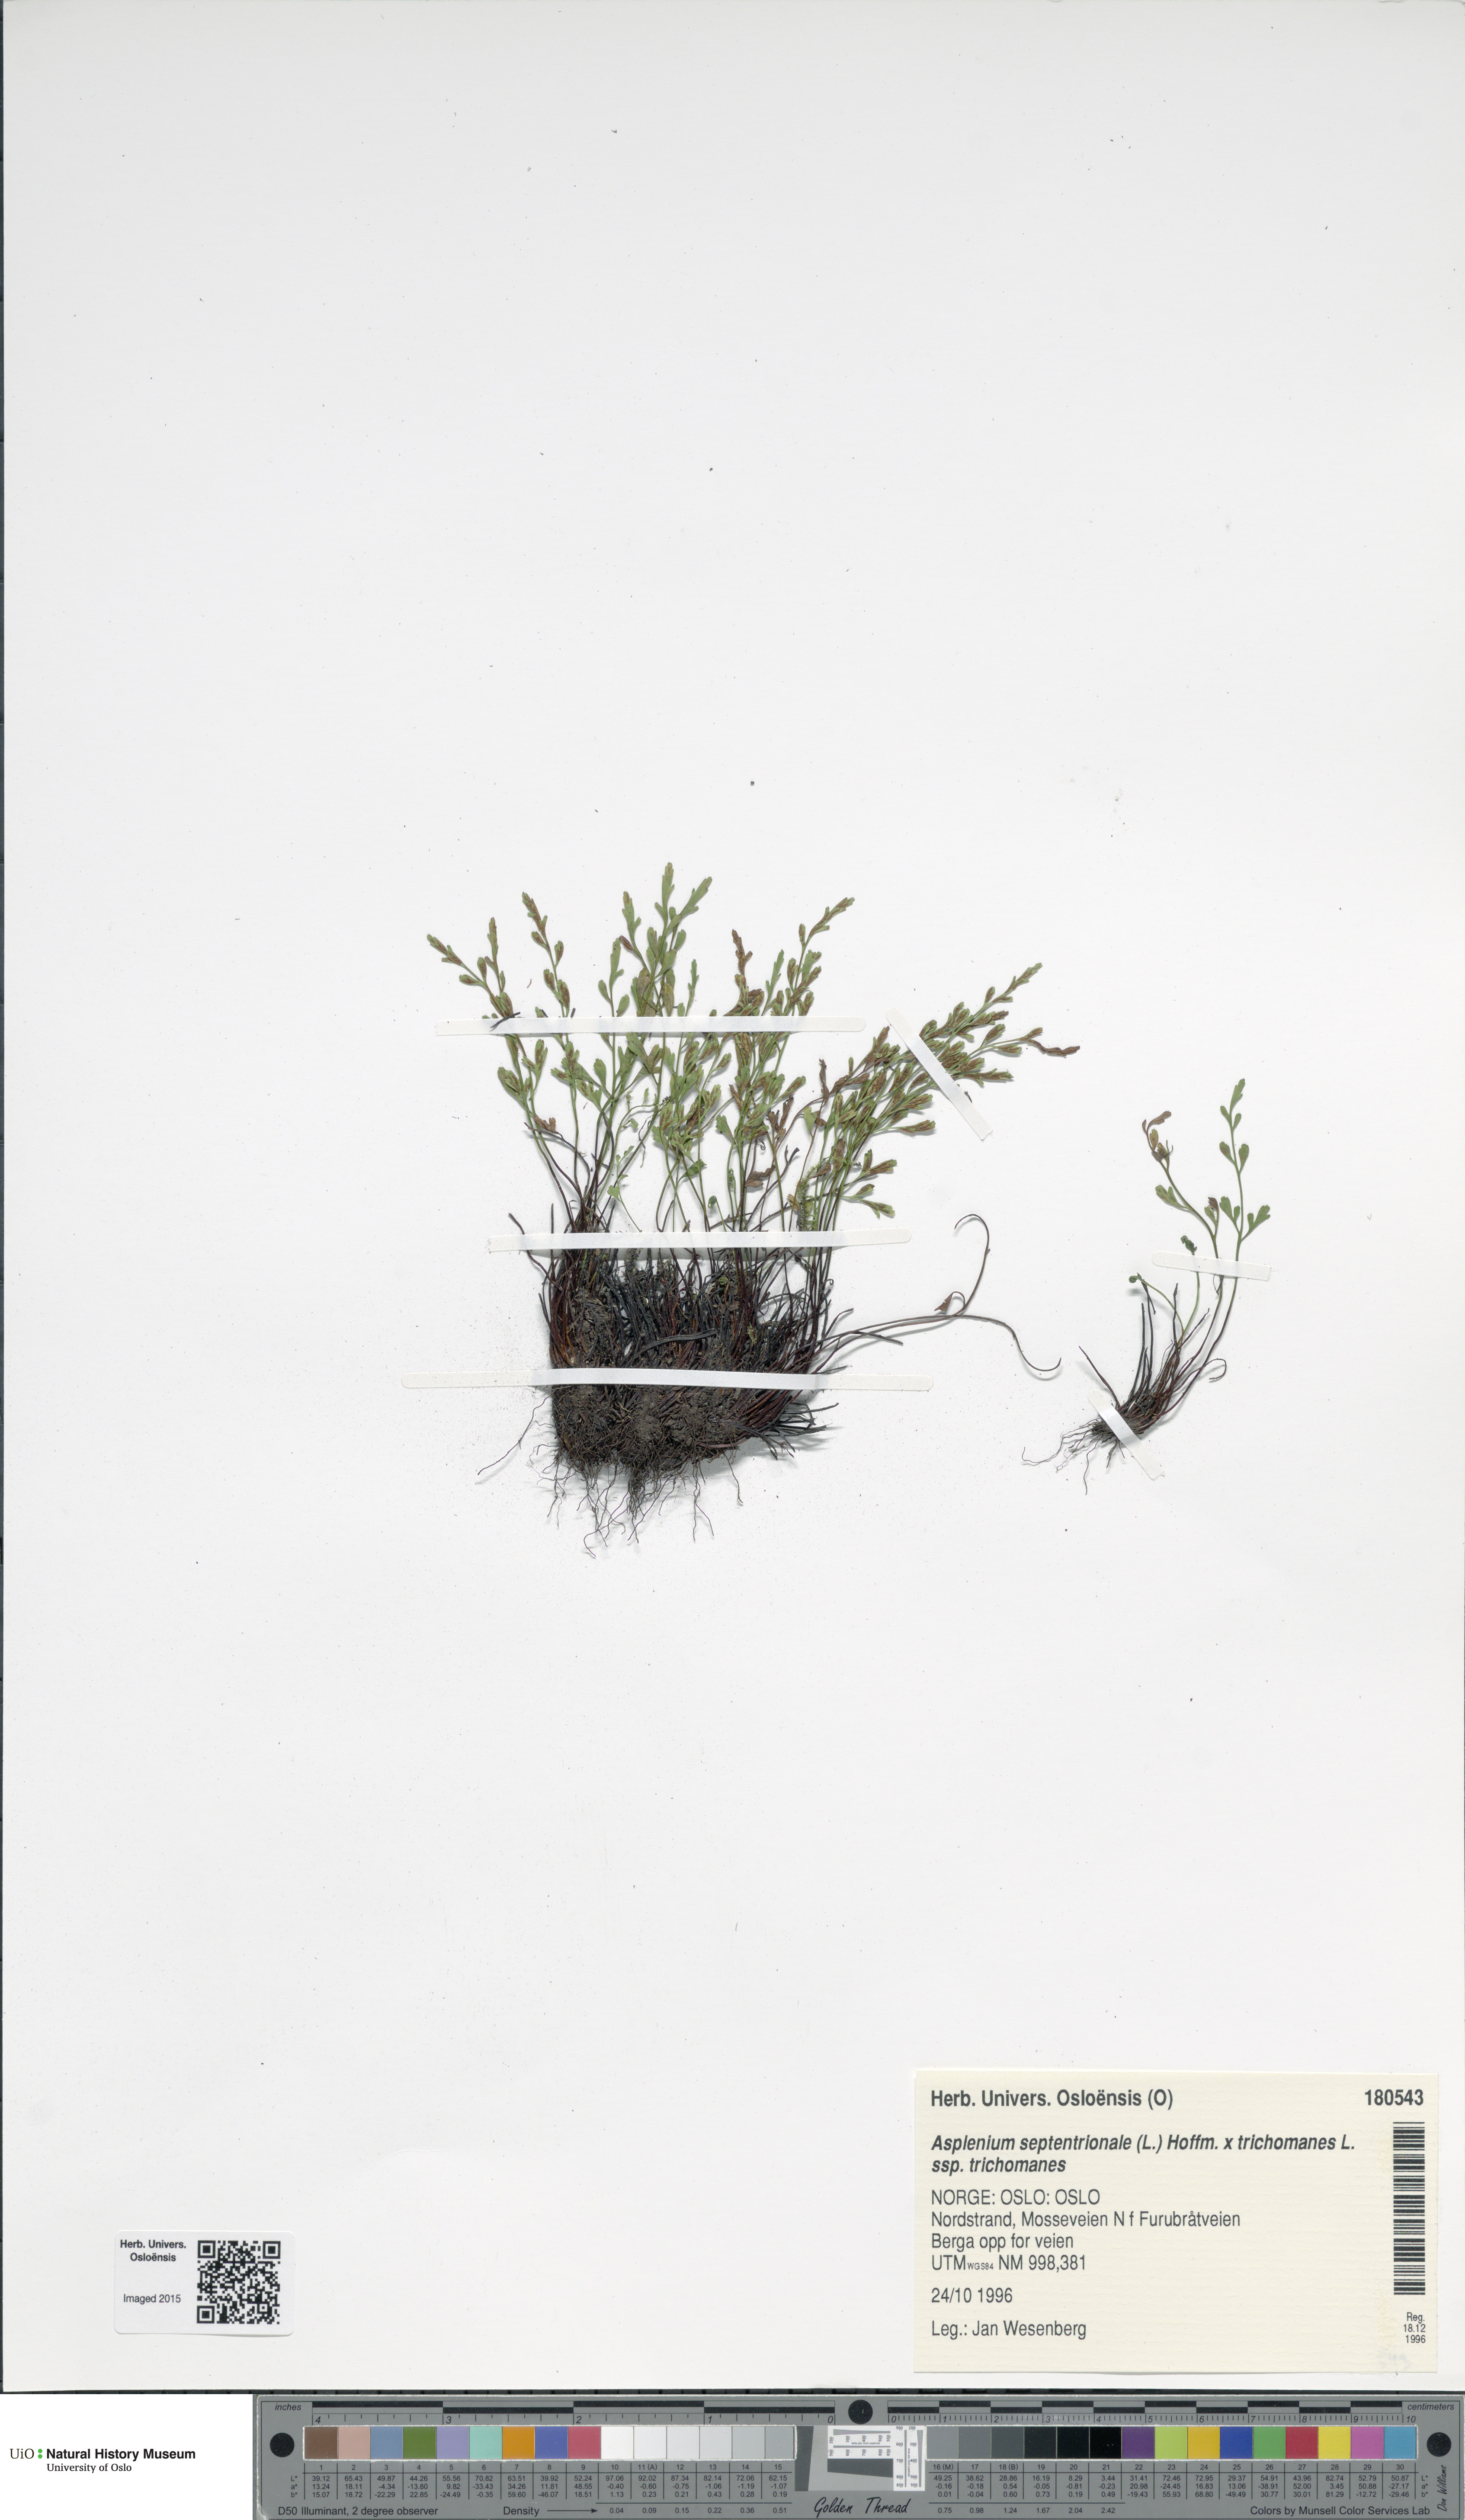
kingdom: Plantae
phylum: Tracheophyta
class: Polypodiopsida
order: Polypodiales
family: Aspleniaceae
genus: Asplenium
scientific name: Asplenium
